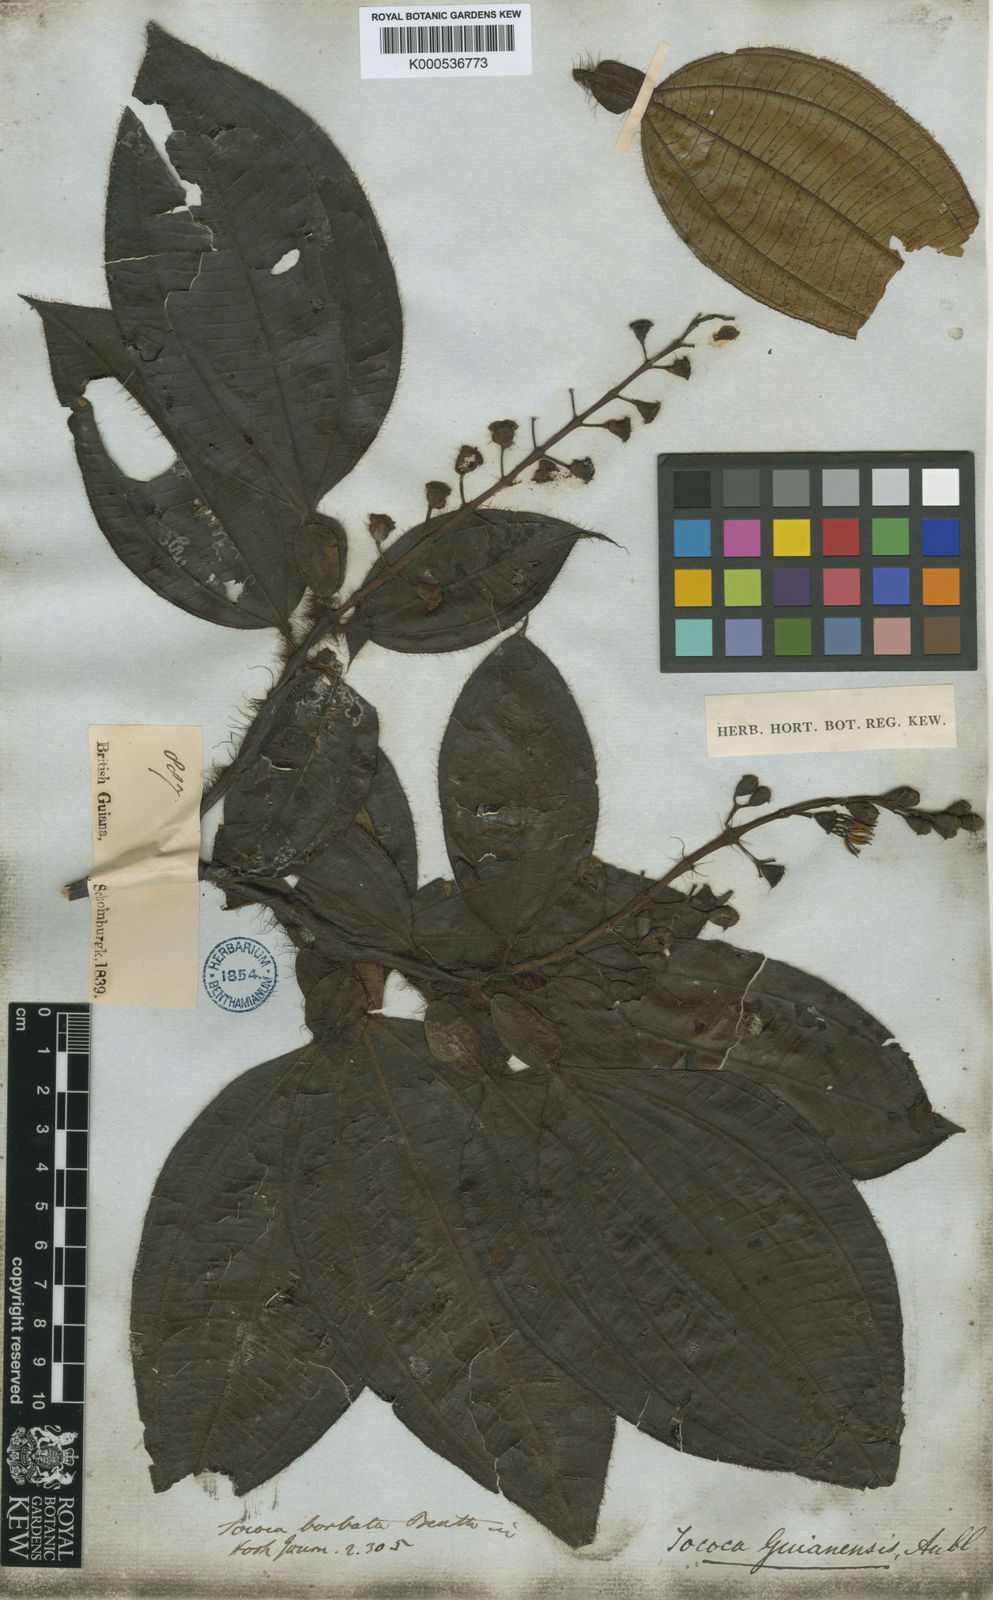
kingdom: Plantae
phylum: Tracheophyta
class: Magnoliopsida
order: Myrtales
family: Melastomataceae
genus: Miconia
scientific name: Miconia tococa
